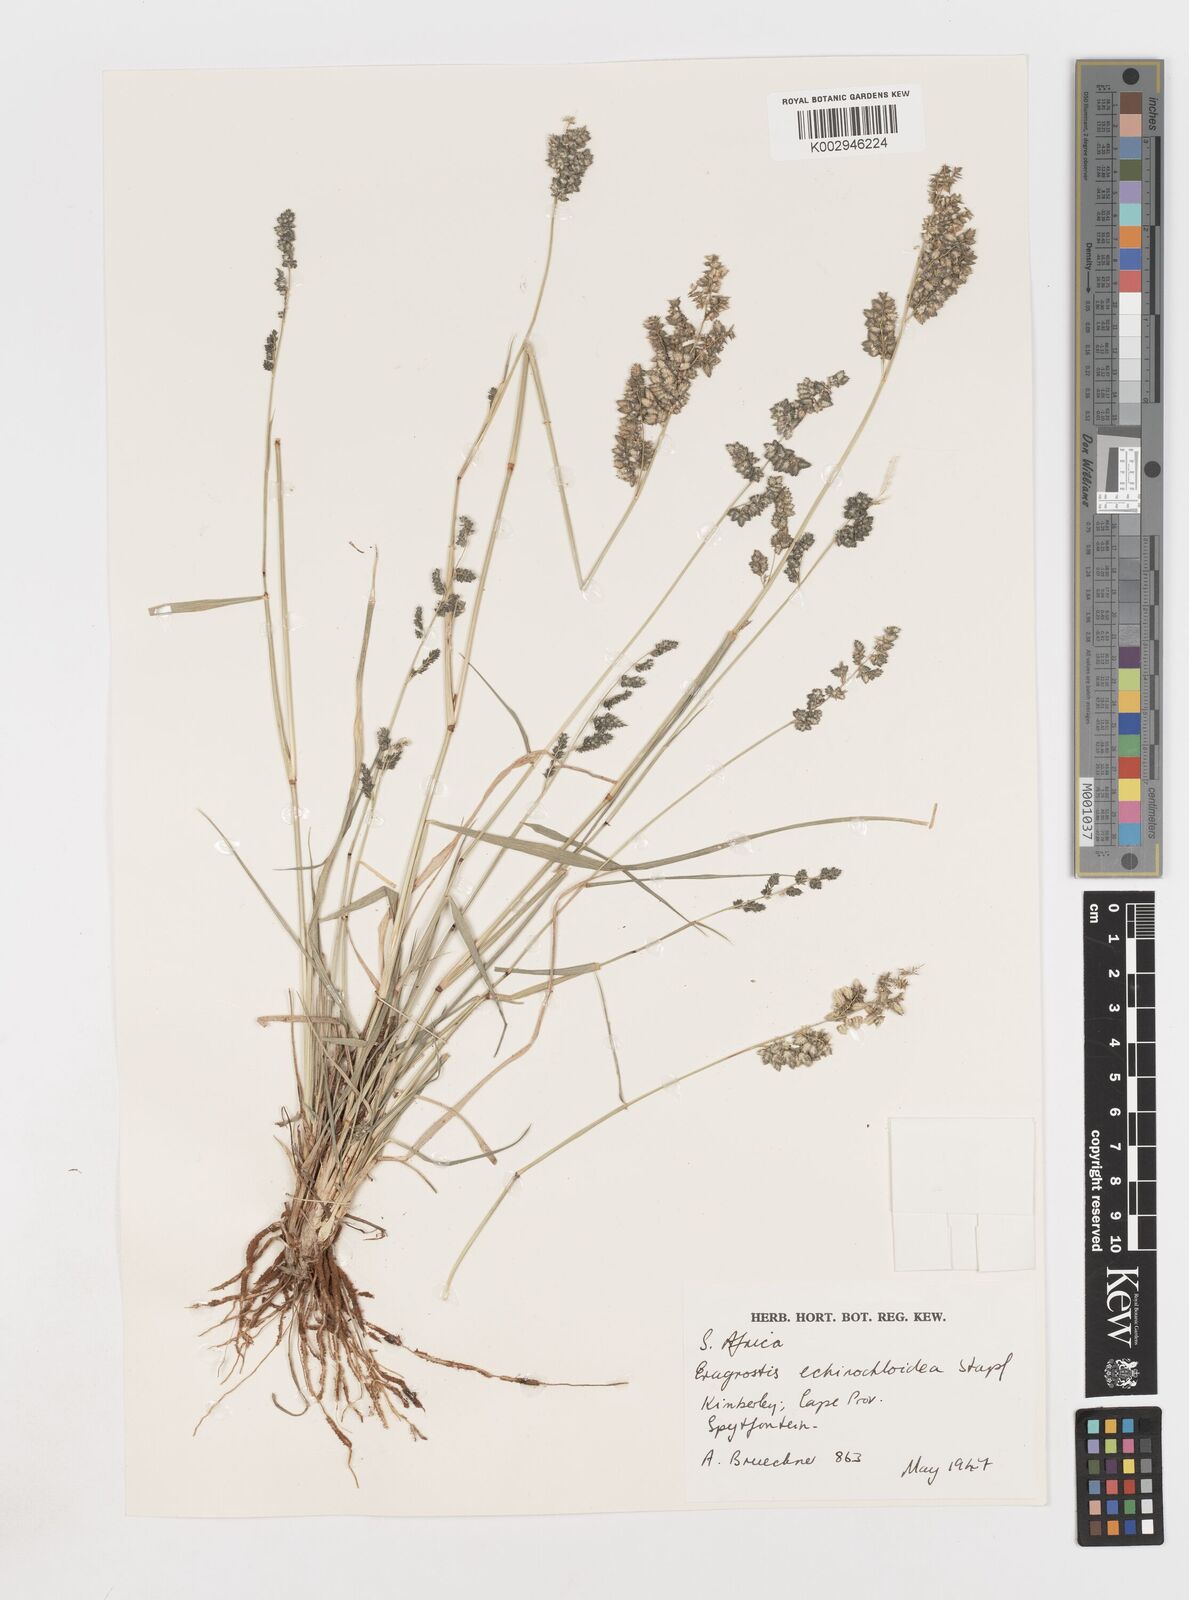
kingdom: Plantae
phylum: Tracheophyta
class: Liliopsida
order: Poales
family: Poaceae
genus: Eragrostis
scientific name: Eragrostis echinochloidea
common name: African lovegrass
